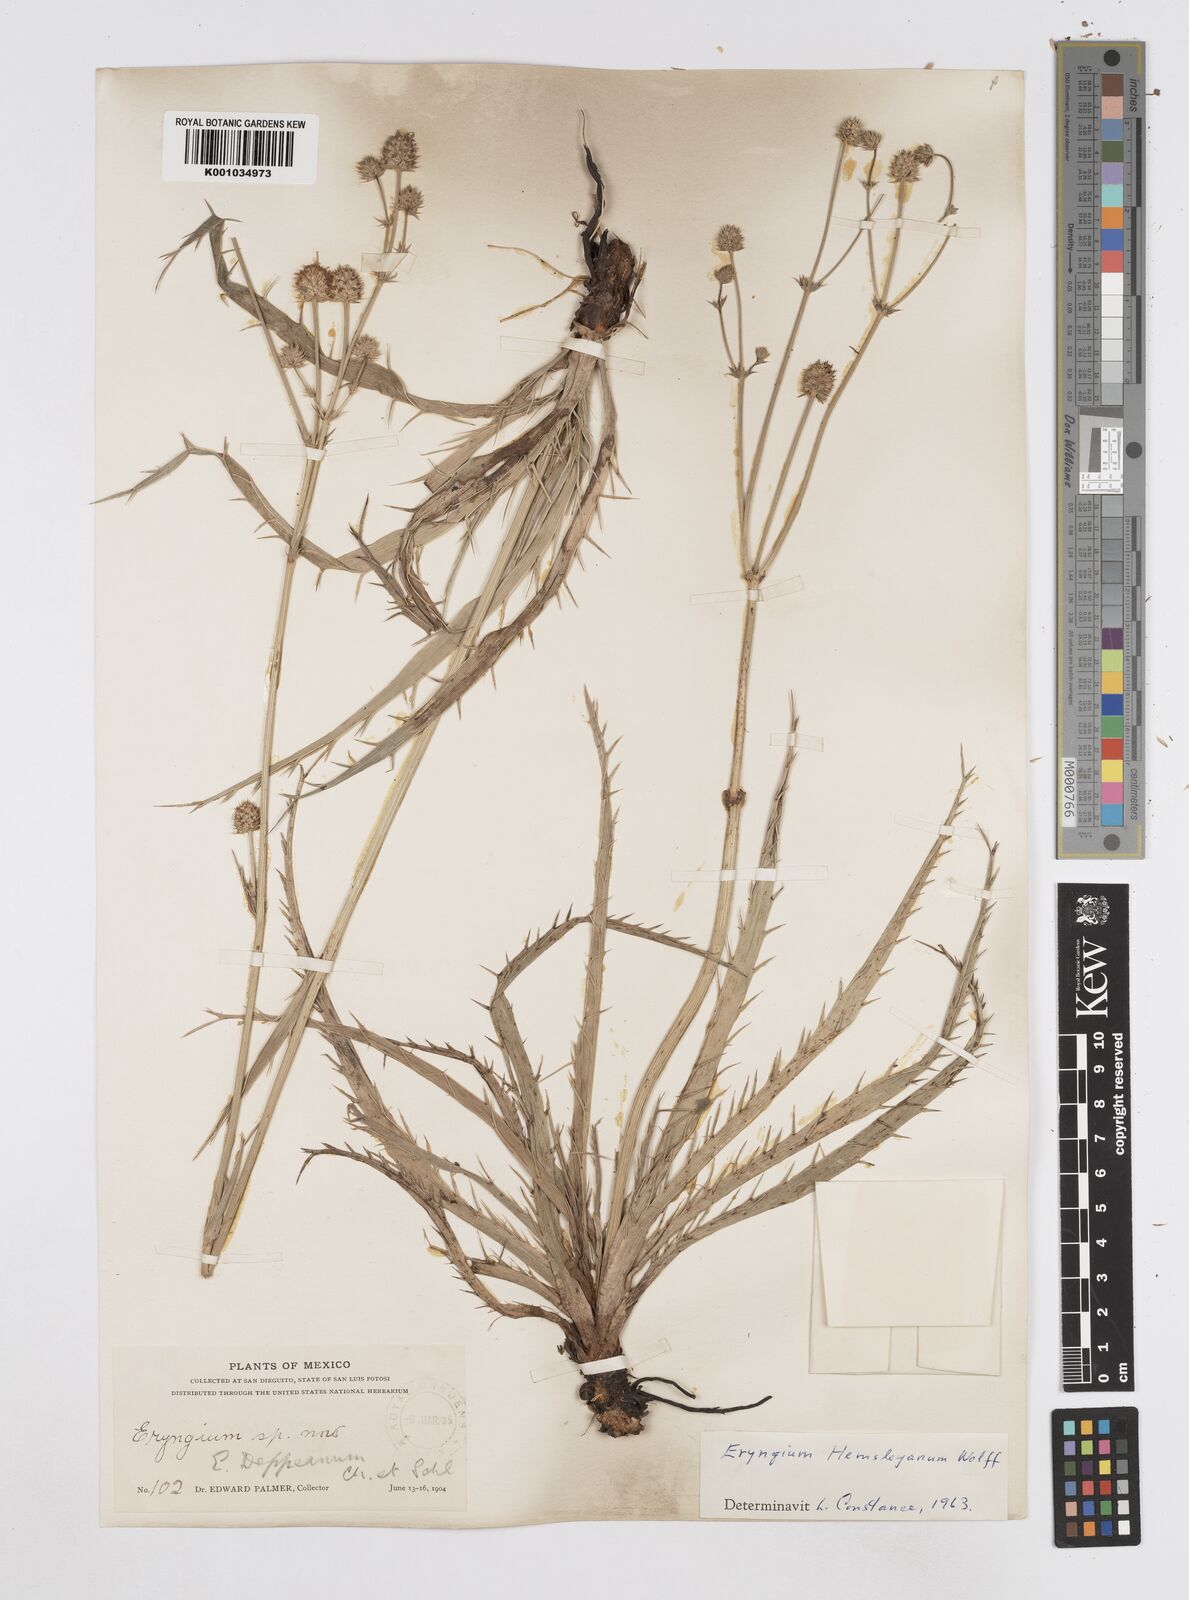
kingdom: Plantae
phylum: Tracheophyta
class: Magnoliopsida
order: Apiales
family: Apiaceae
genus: Eryngium
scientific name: Eryngium hemsleyanum
